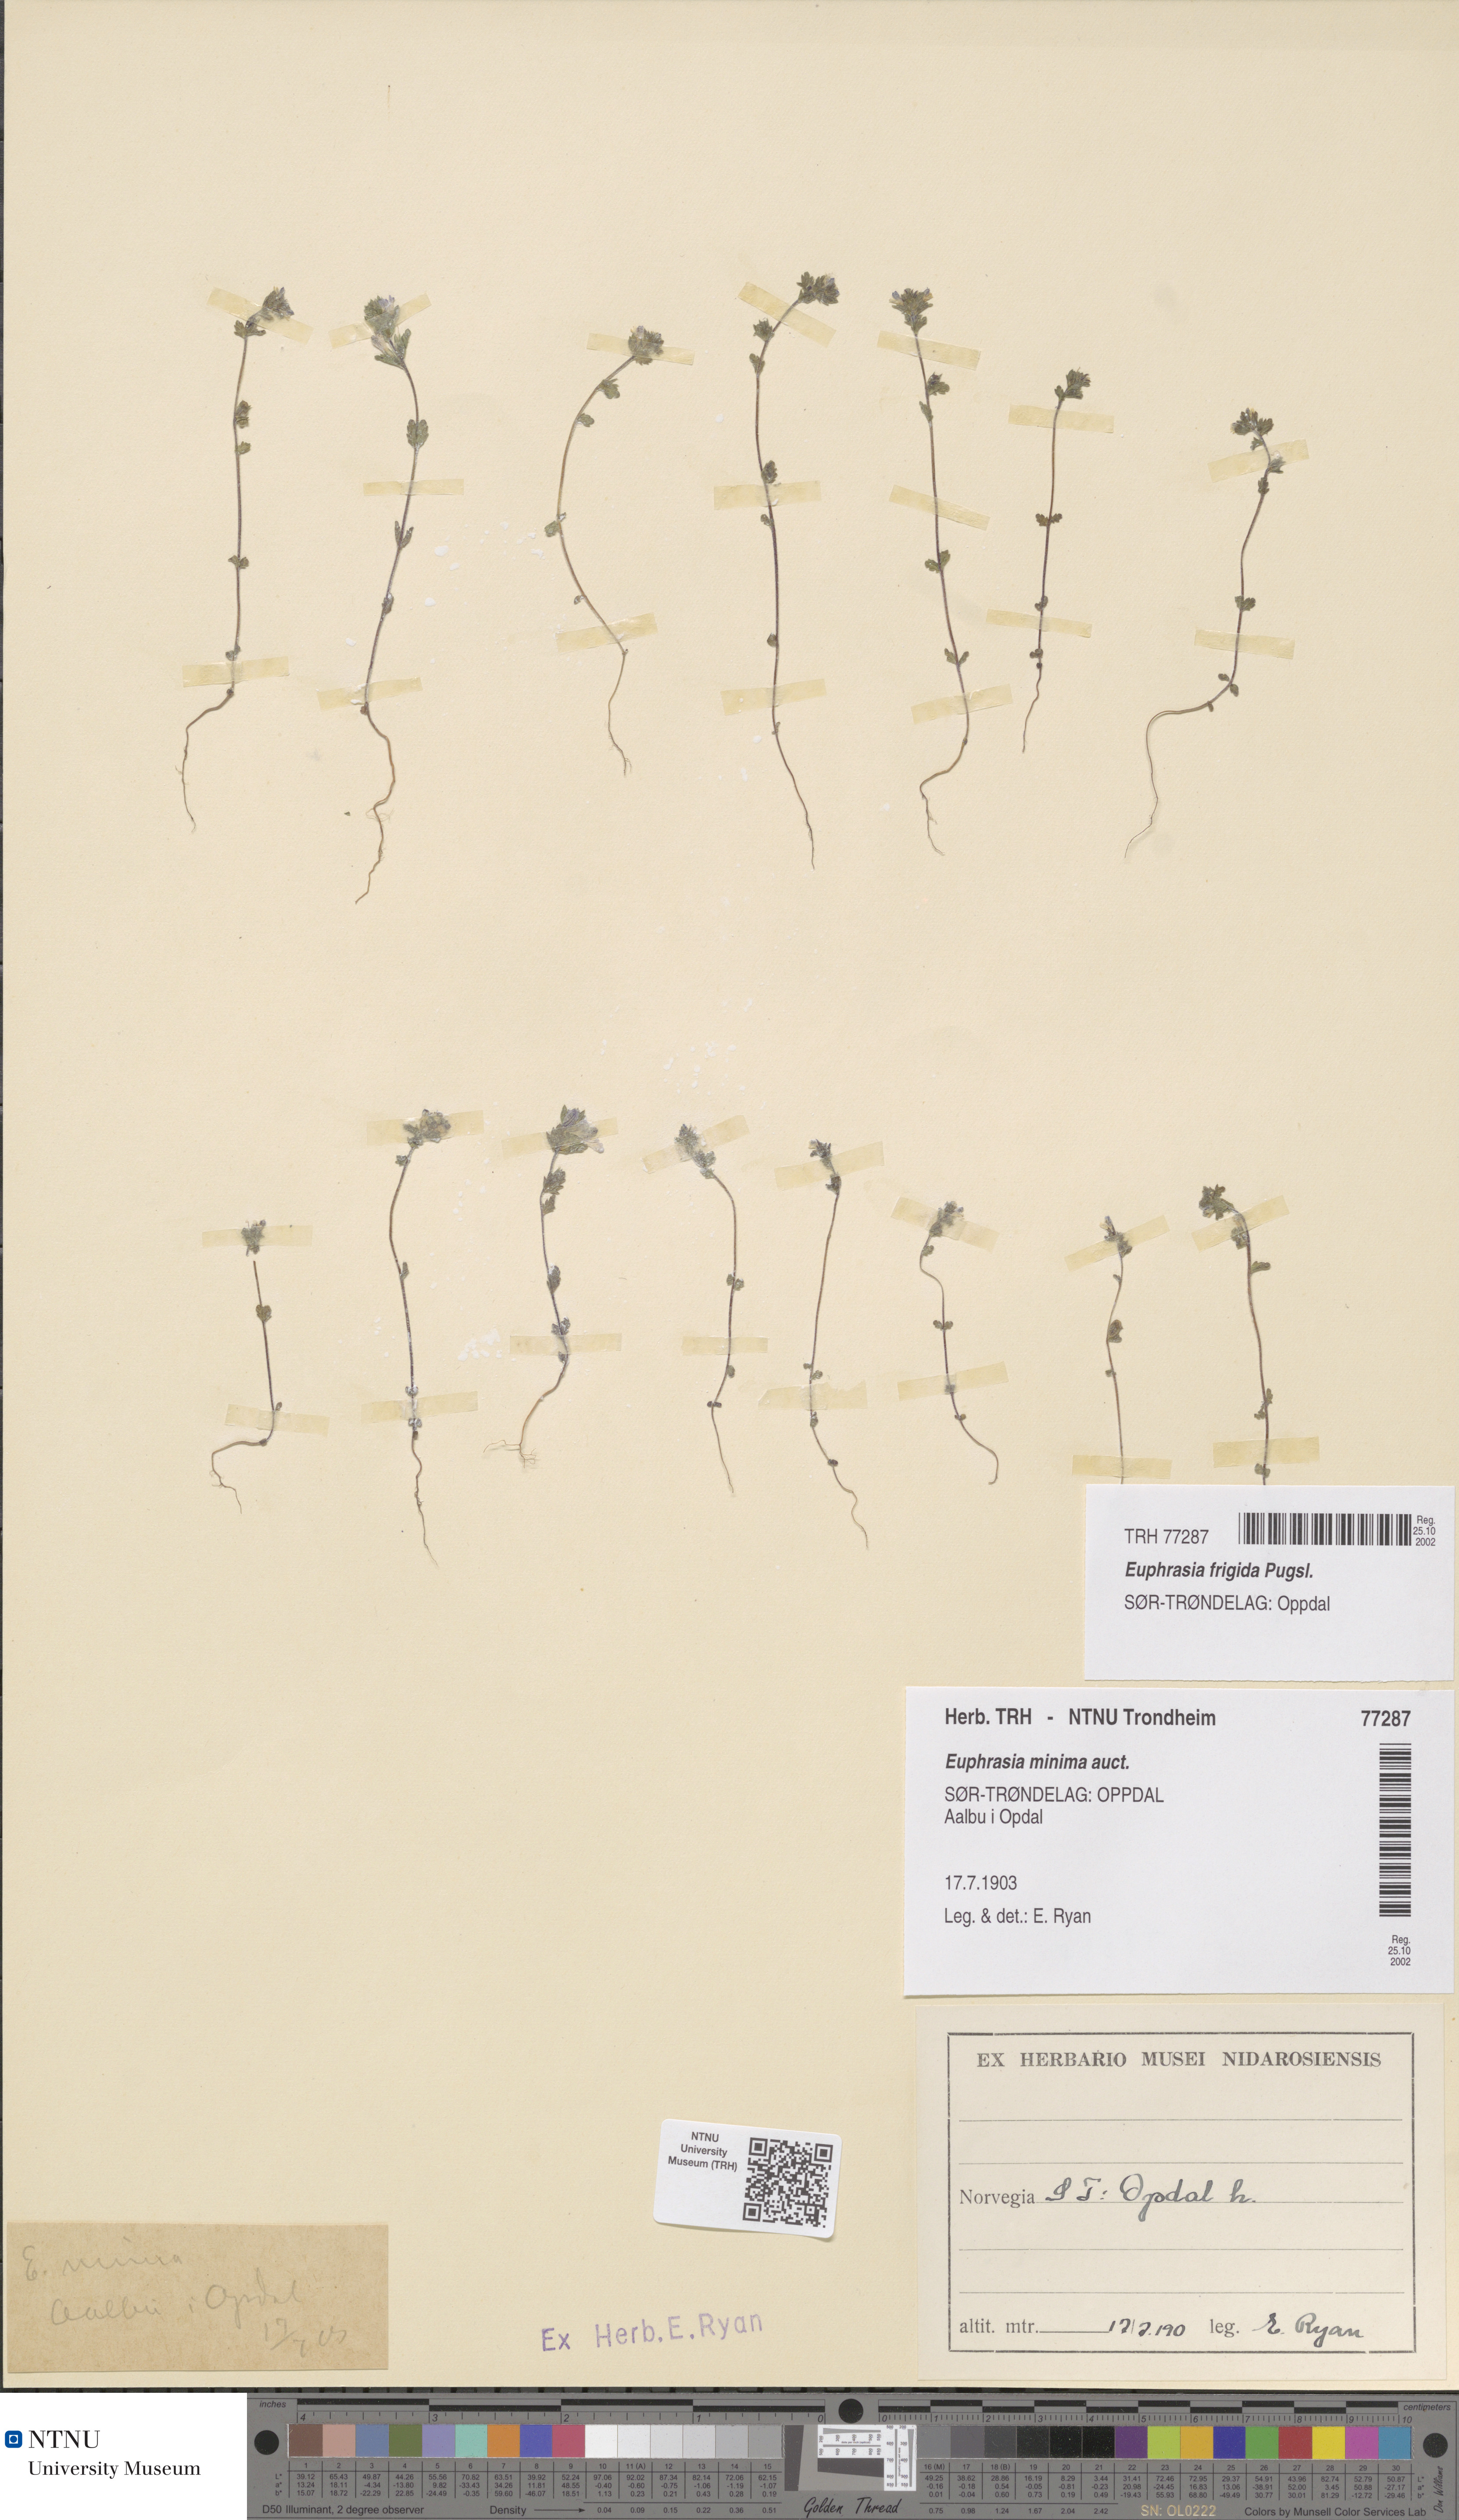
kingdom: Plantae
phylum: Tracheophyta
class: Magnoliopsida
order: Lamiales
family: Orobanchaceae
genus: Euphrasia
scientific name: Euphrasia wettsteinii
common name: Wettstein's eyebright
